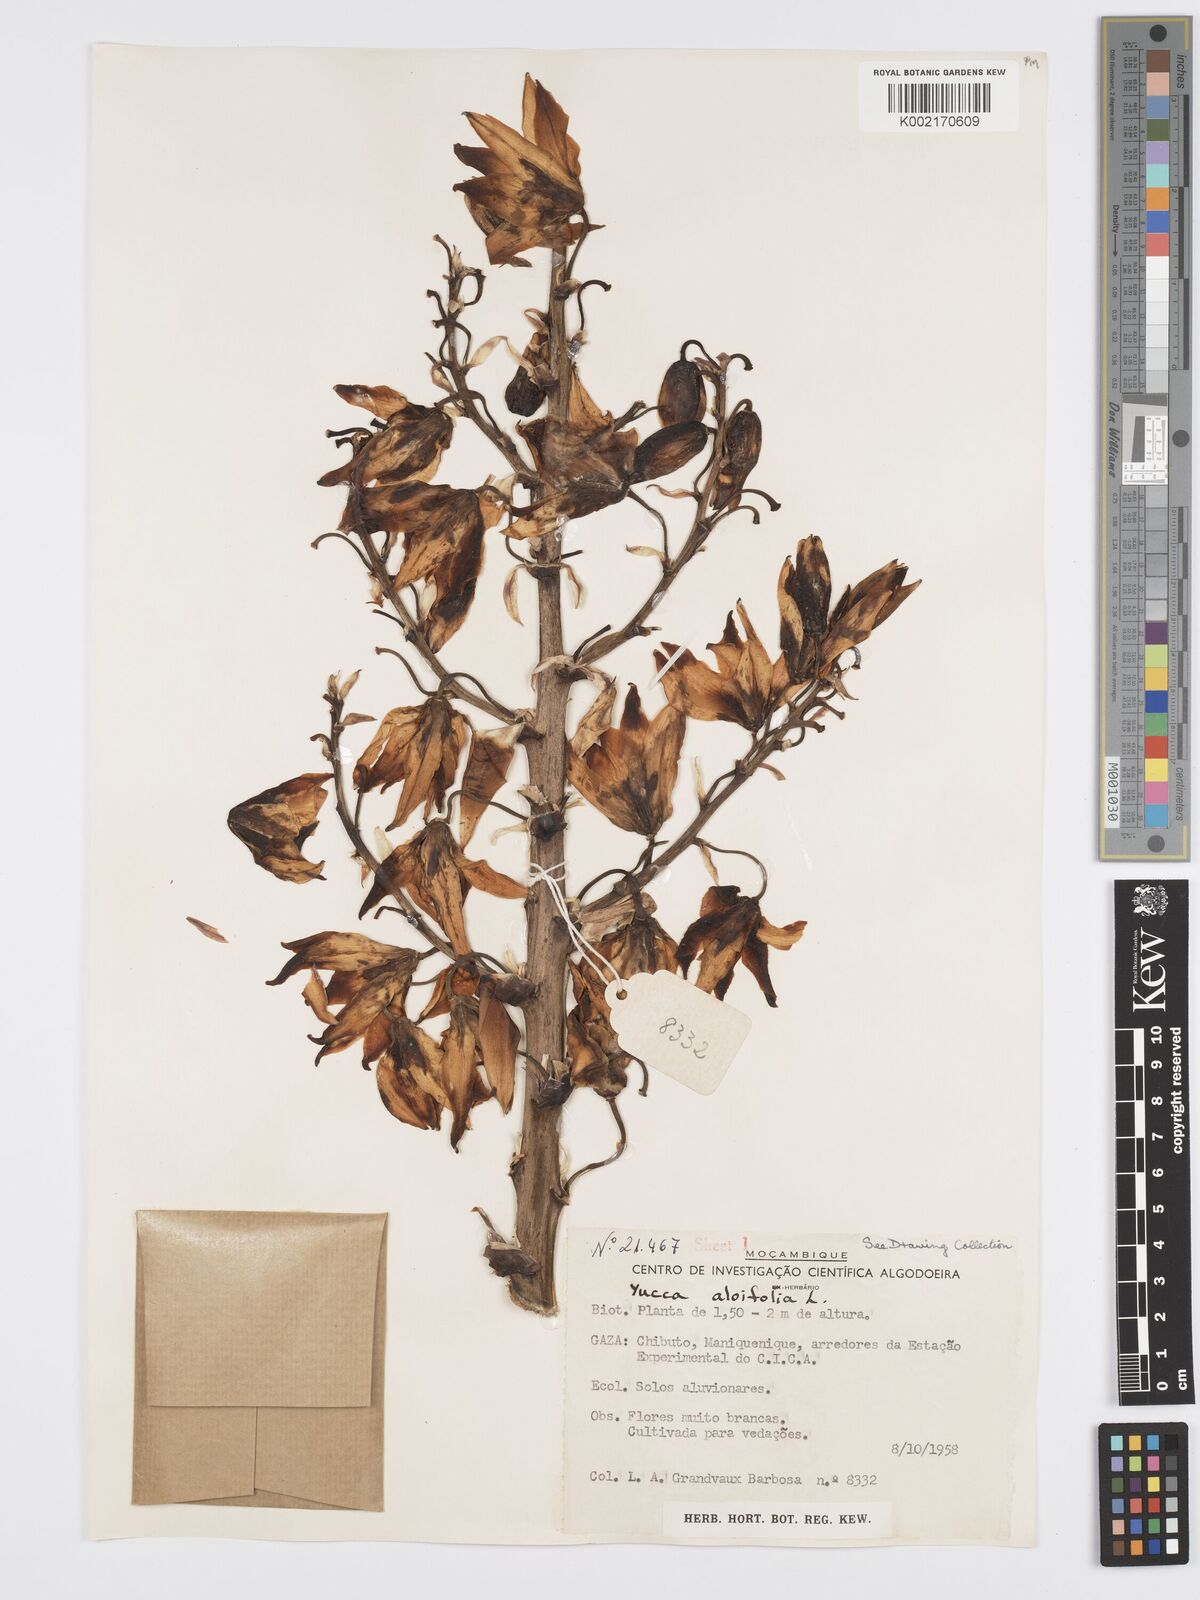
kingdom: Plantae
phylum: Tracheophyta
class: Liliopsida
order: Asparagales
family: Asparagaceae
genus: Yucca
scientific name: Yucca aloifolia
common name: Aloe yucca
